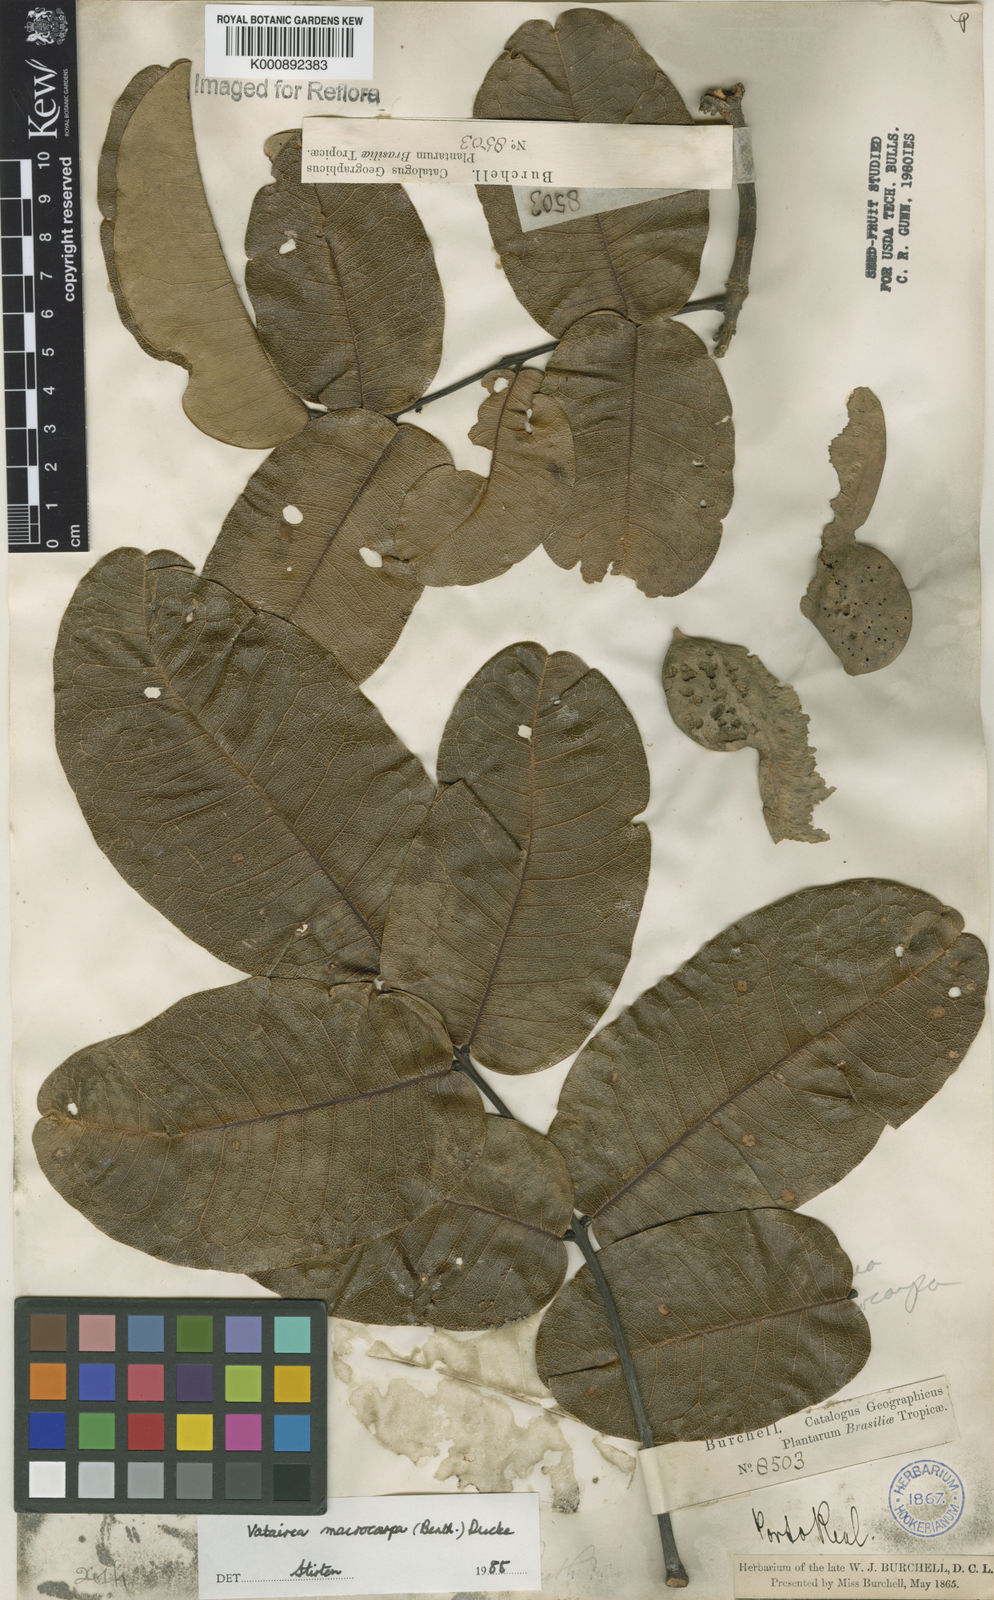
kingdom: Plantae
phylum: Tracheophyta
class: Magnoliopsida
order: Fabales
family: Fabaceae
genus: Vatairea
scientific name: Vatairea macrocarpa
